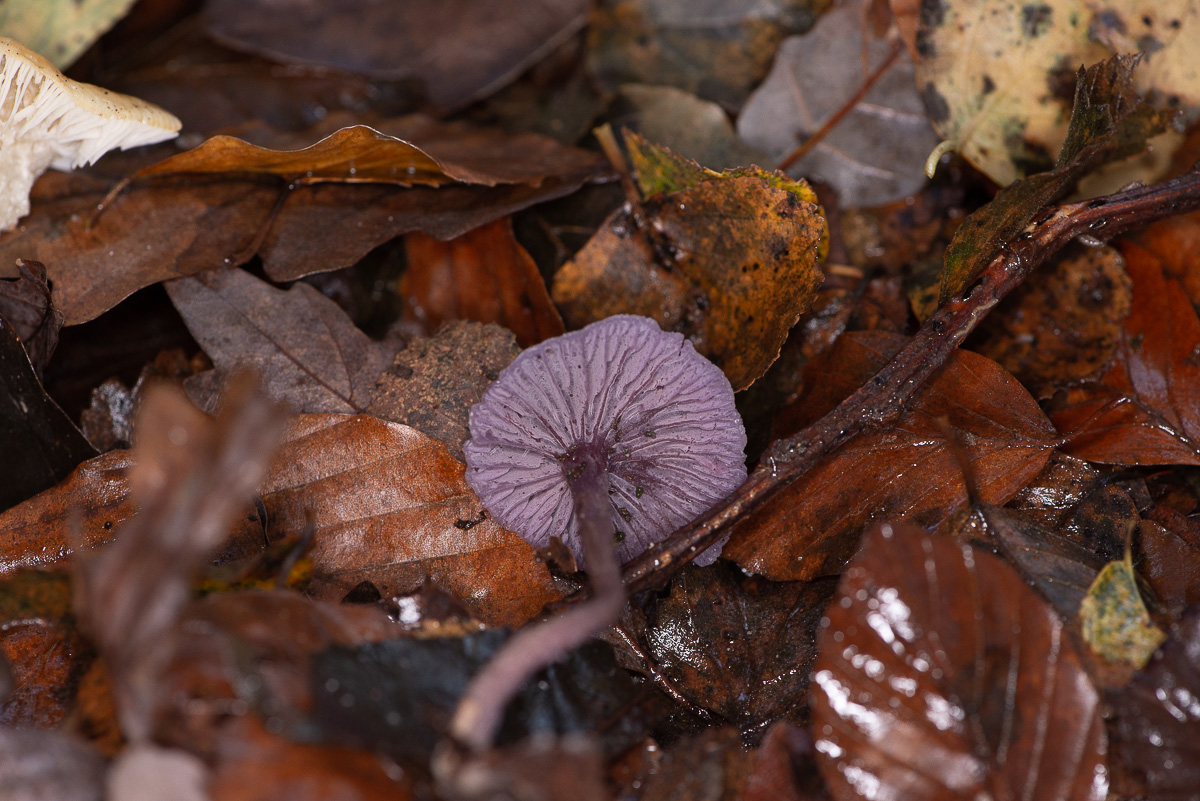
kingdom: Fungi
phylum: Basidiomycota
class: Agaricomycetes
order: Agaricales
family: Hydnangiaceae
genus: Laccaria
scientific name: Laccaria amethystina
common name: violet ametysthat
